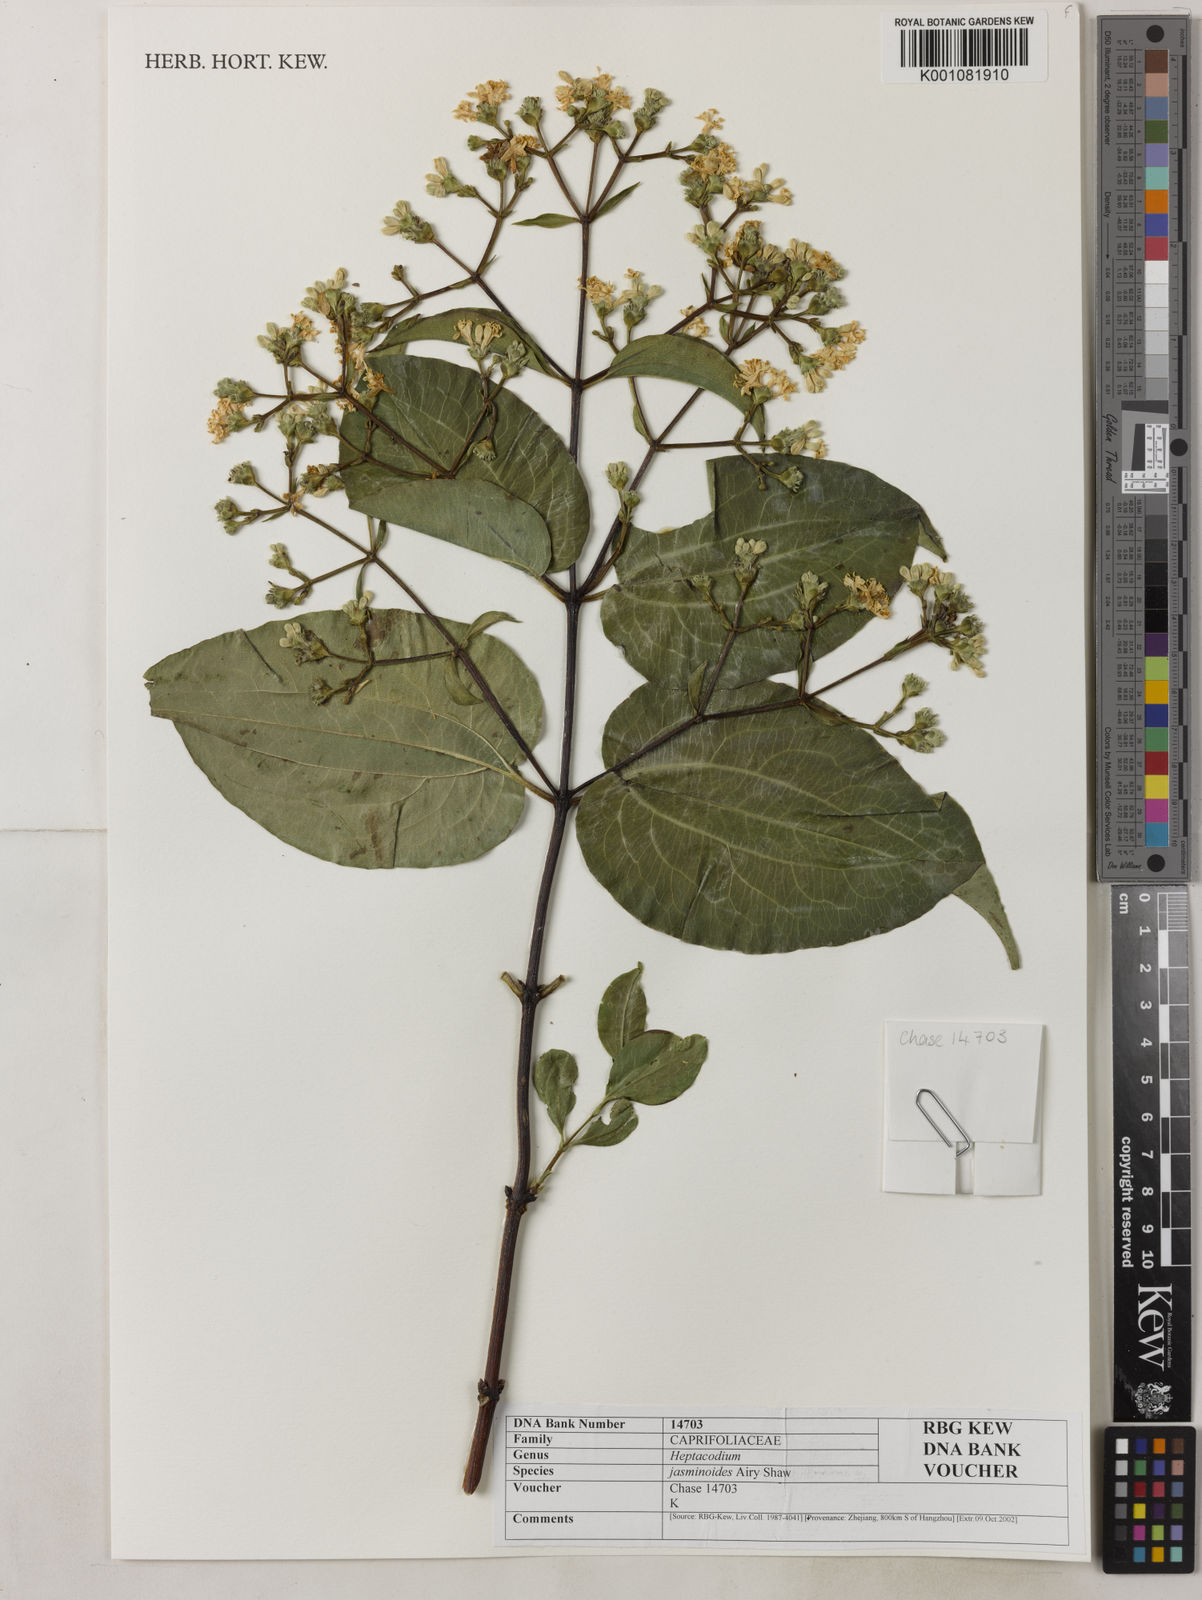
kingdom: Plantae
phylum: Tracheophyta
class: Magnoliopsida
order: Dipsacales
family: Caprifoliaceae
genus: Heptacodium
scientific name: Heptacodium miconioides
